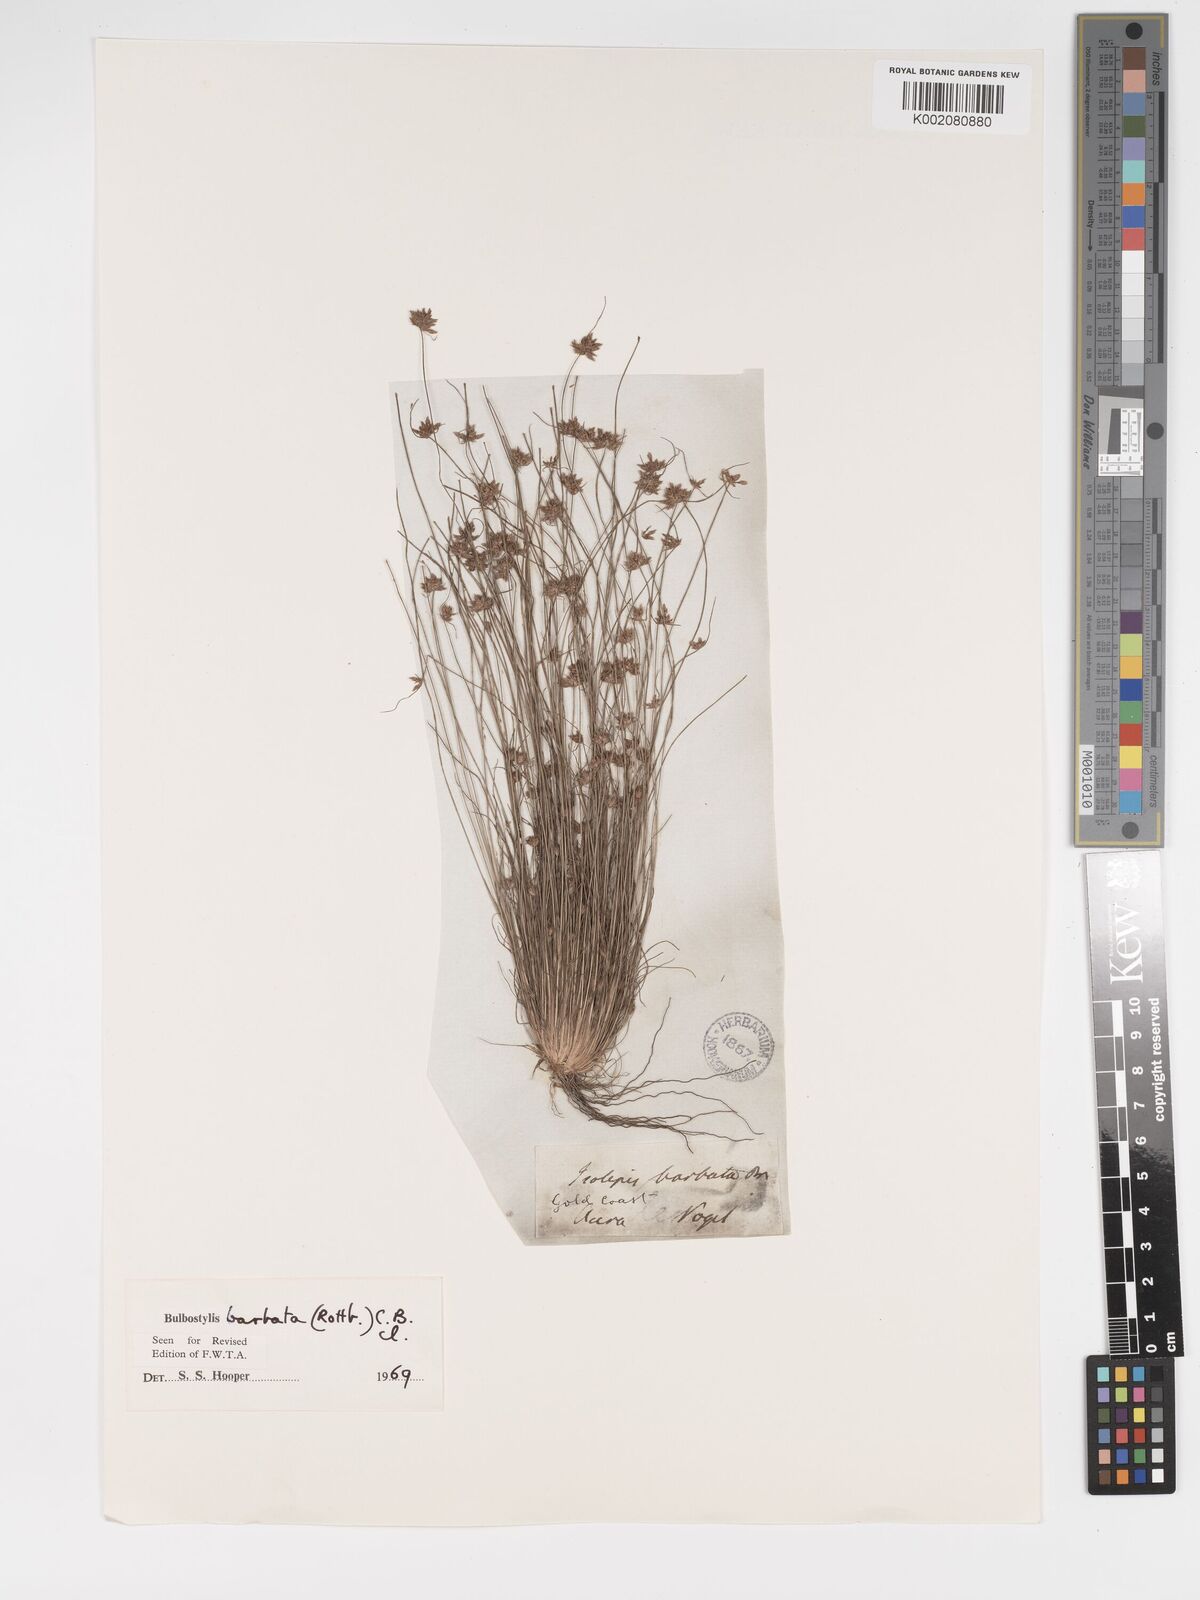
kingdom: Plantae
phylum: Tracheophyta
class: Liliopsida
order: Poales
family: Cyperaceae
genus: Bulbostylis
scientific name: Bulbostylis barbata
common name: Watergrass
